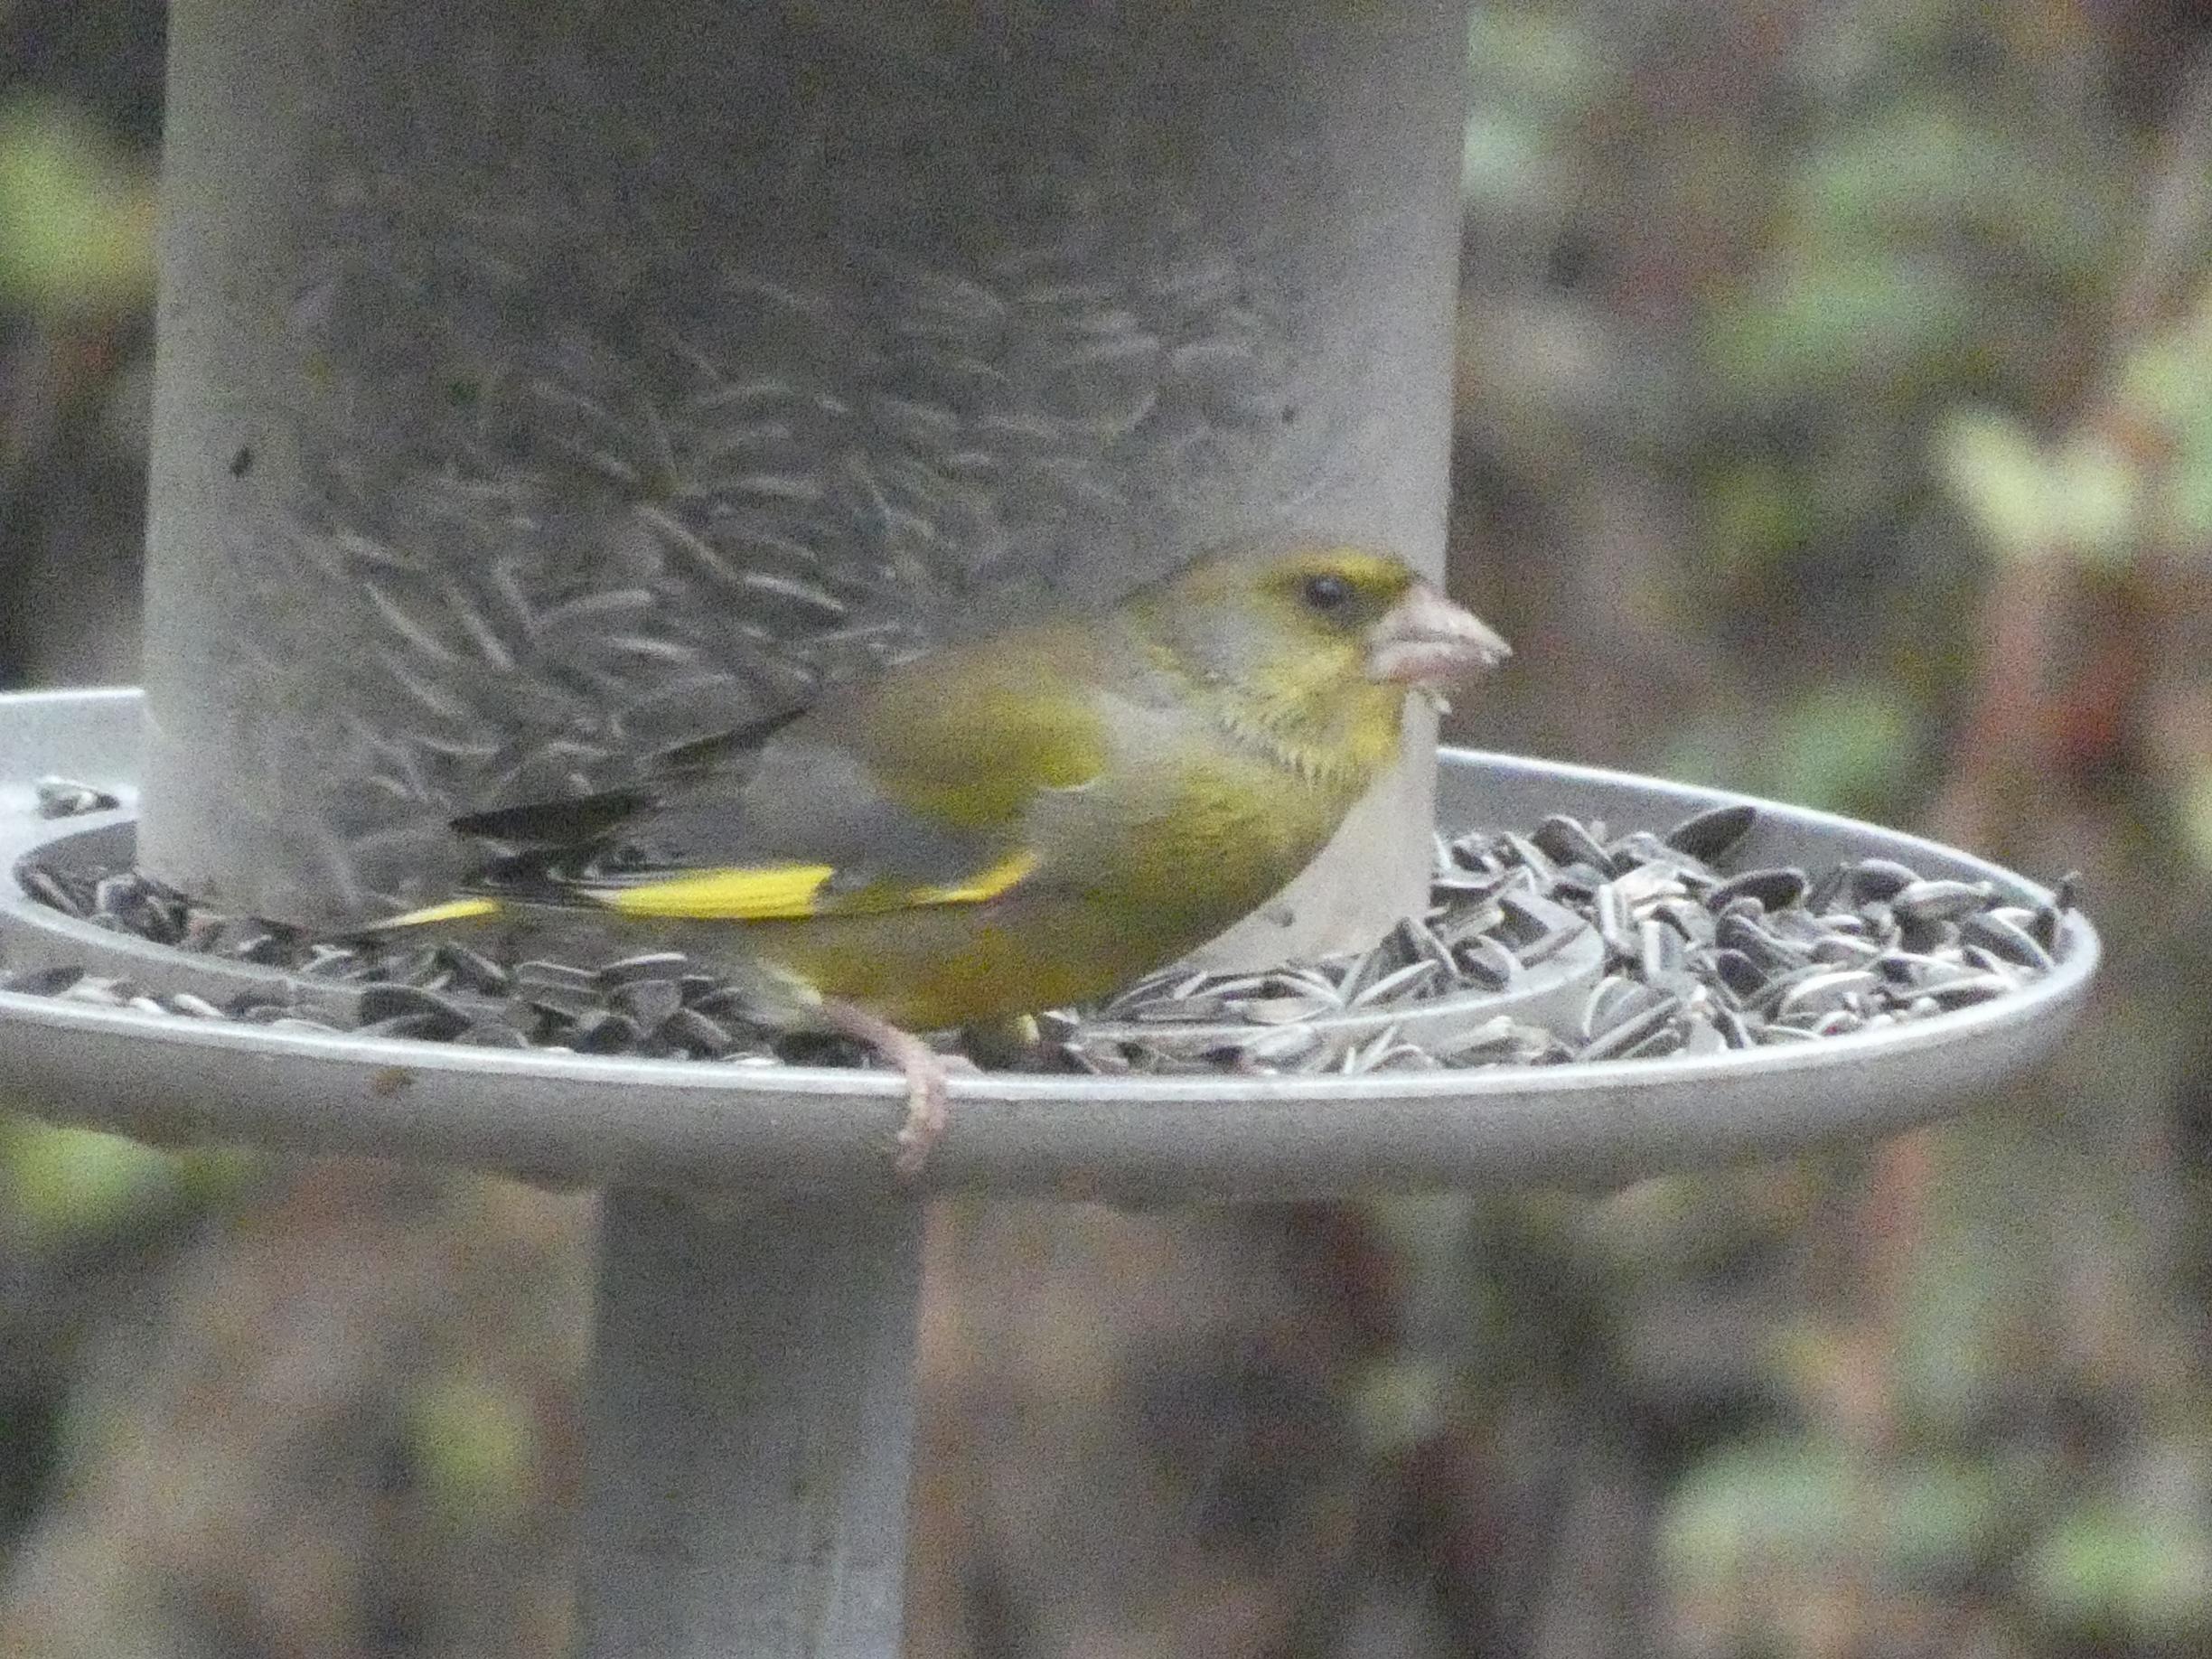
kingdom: Plantae
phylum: Tracheophyta
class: Liliopsida
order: Poales
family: Poaceae
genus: Chloris
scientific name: Chloris chloris
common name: Grønirisk
